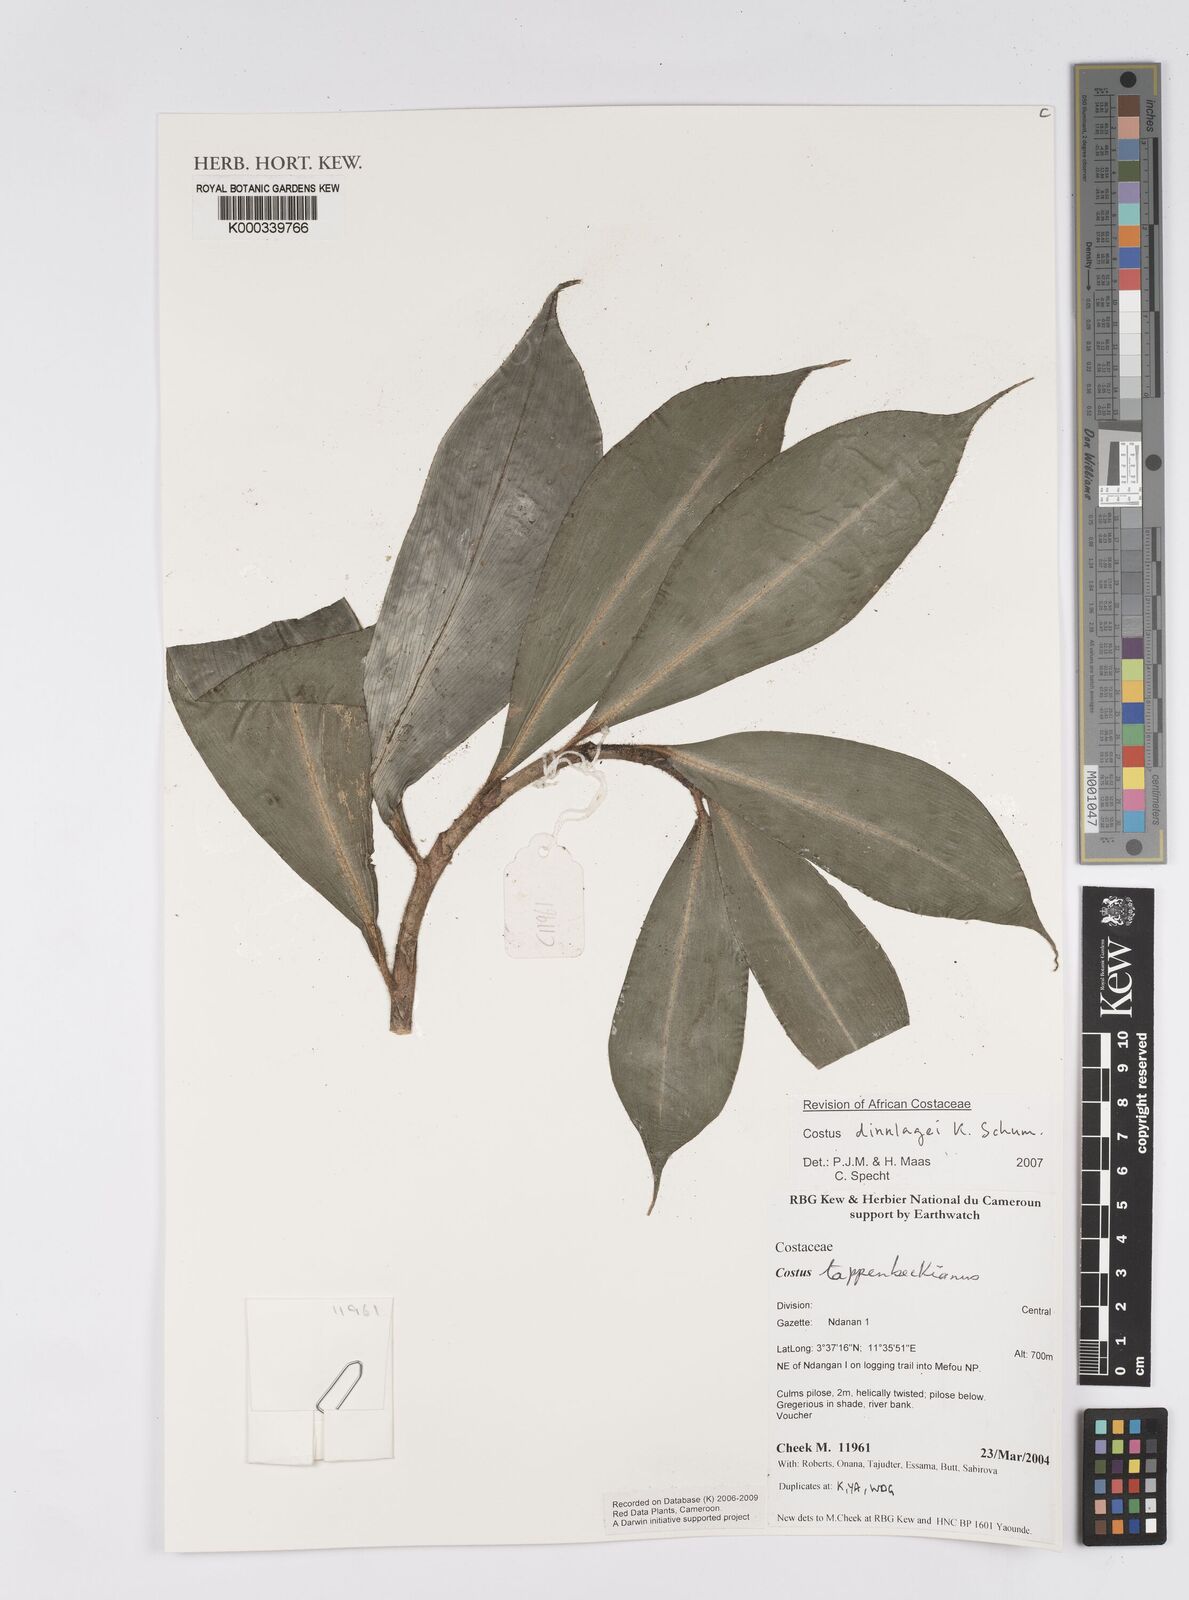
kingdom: Plantae
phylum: Tracheophyta
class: Liliopsida
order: Zingiberales
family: Costaceae
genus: Costus
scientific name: Costus dinklagei
